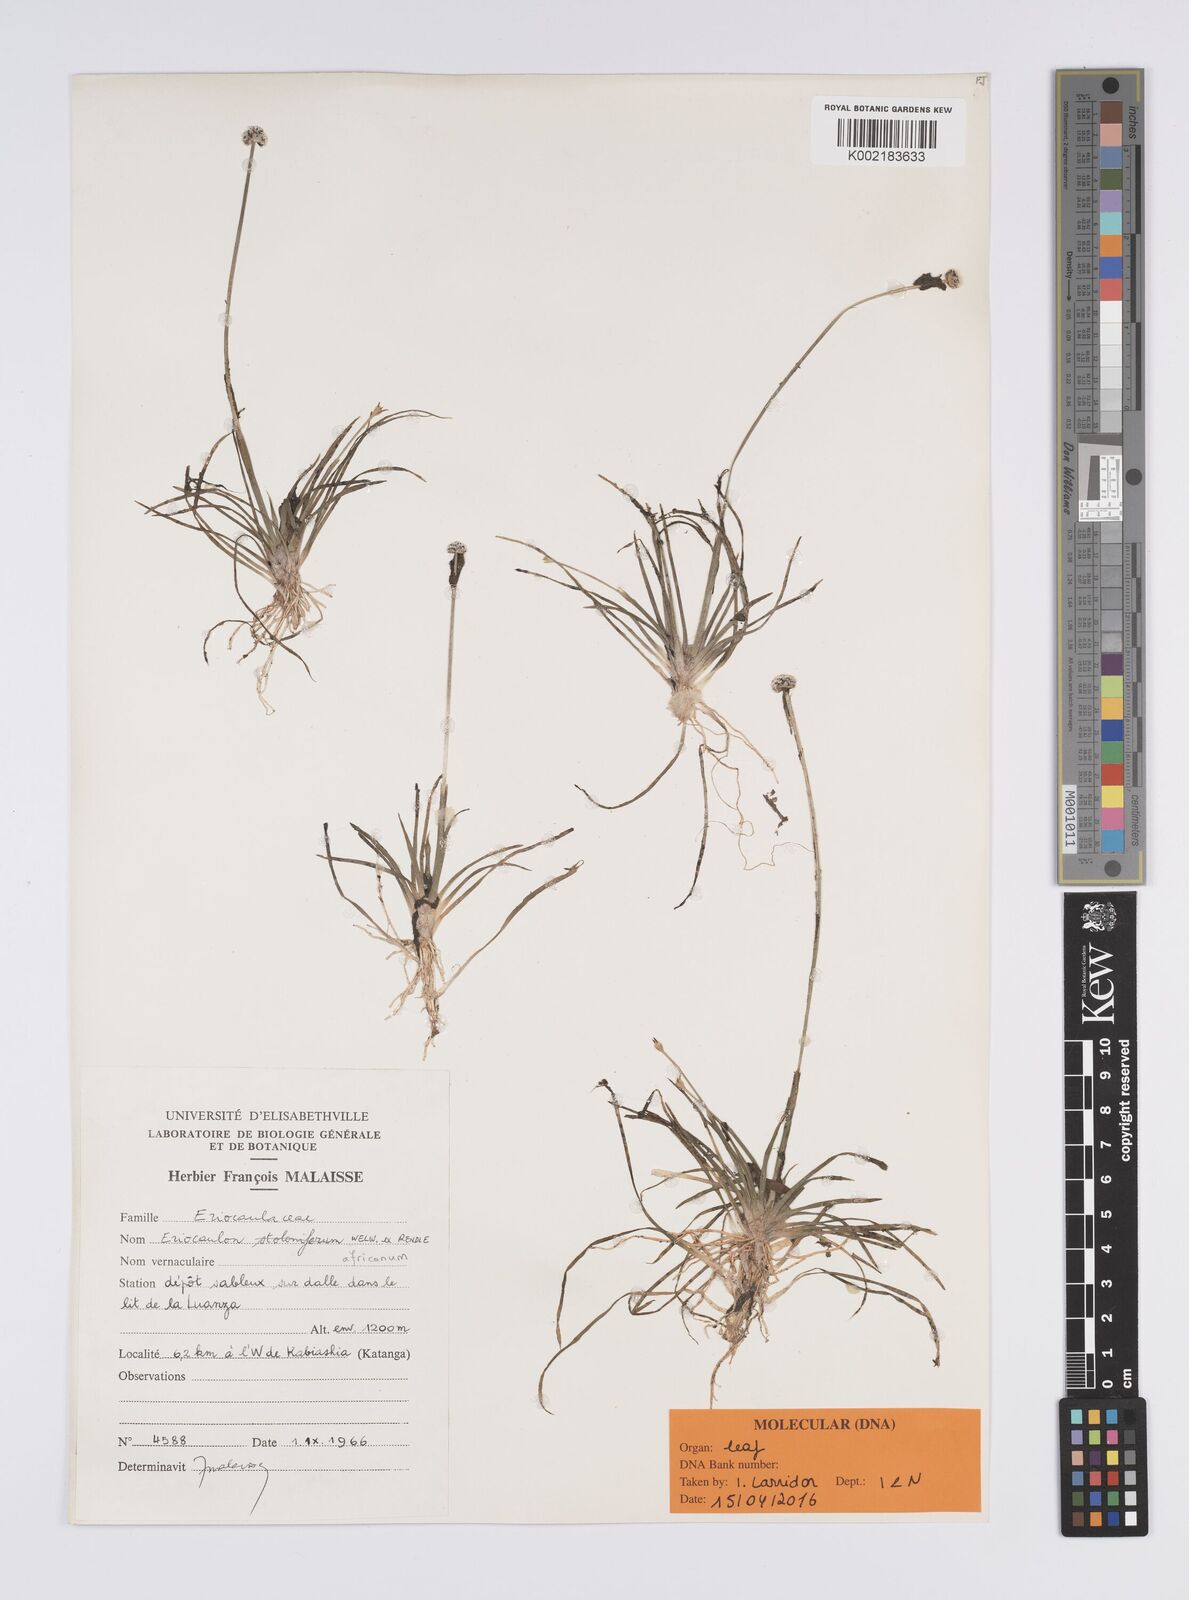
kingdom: Plantae
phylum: Tracheophyta
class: Liliopsida
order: Poales
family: Eriocaulaceae
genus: Eriocaulon
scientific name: Eriocaulon africanum
